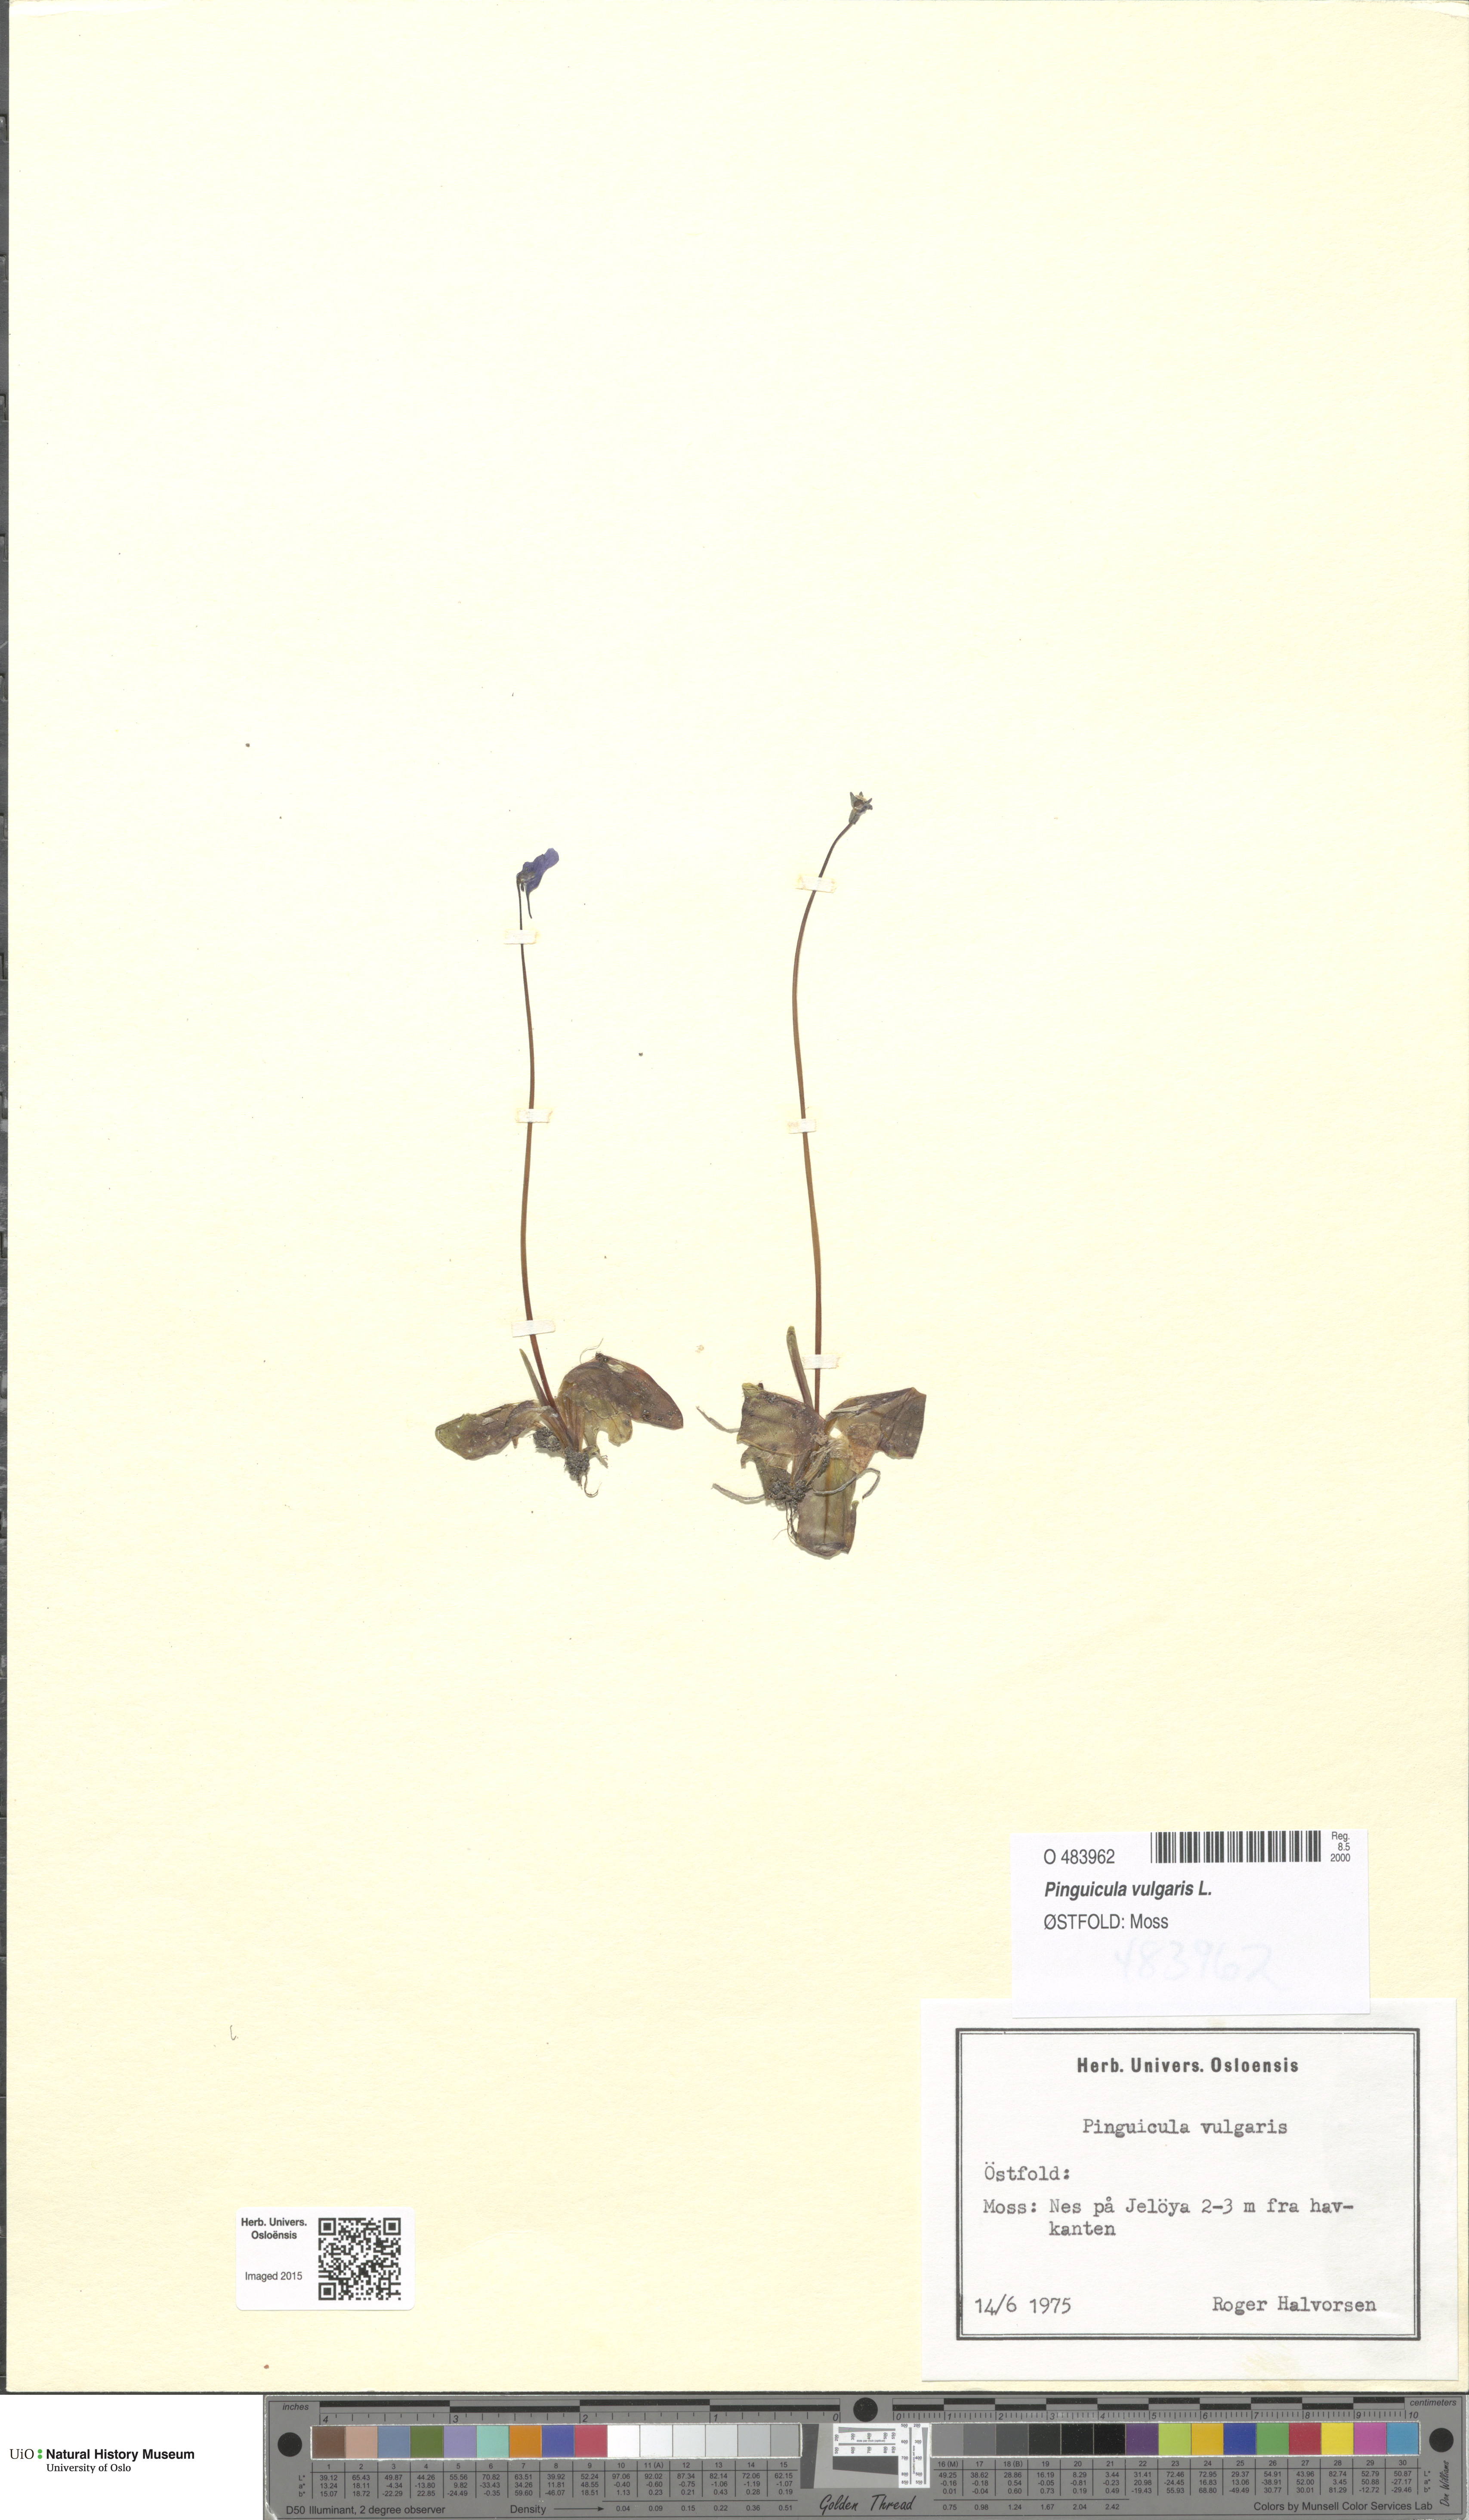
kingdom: Plantae
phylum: Tracheophyta
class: Magnoliopsida
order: Lamiales
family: Lentibulariaceae
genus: Pinguicula
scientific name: Pinguicula vulgaris
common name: Common butterwort
